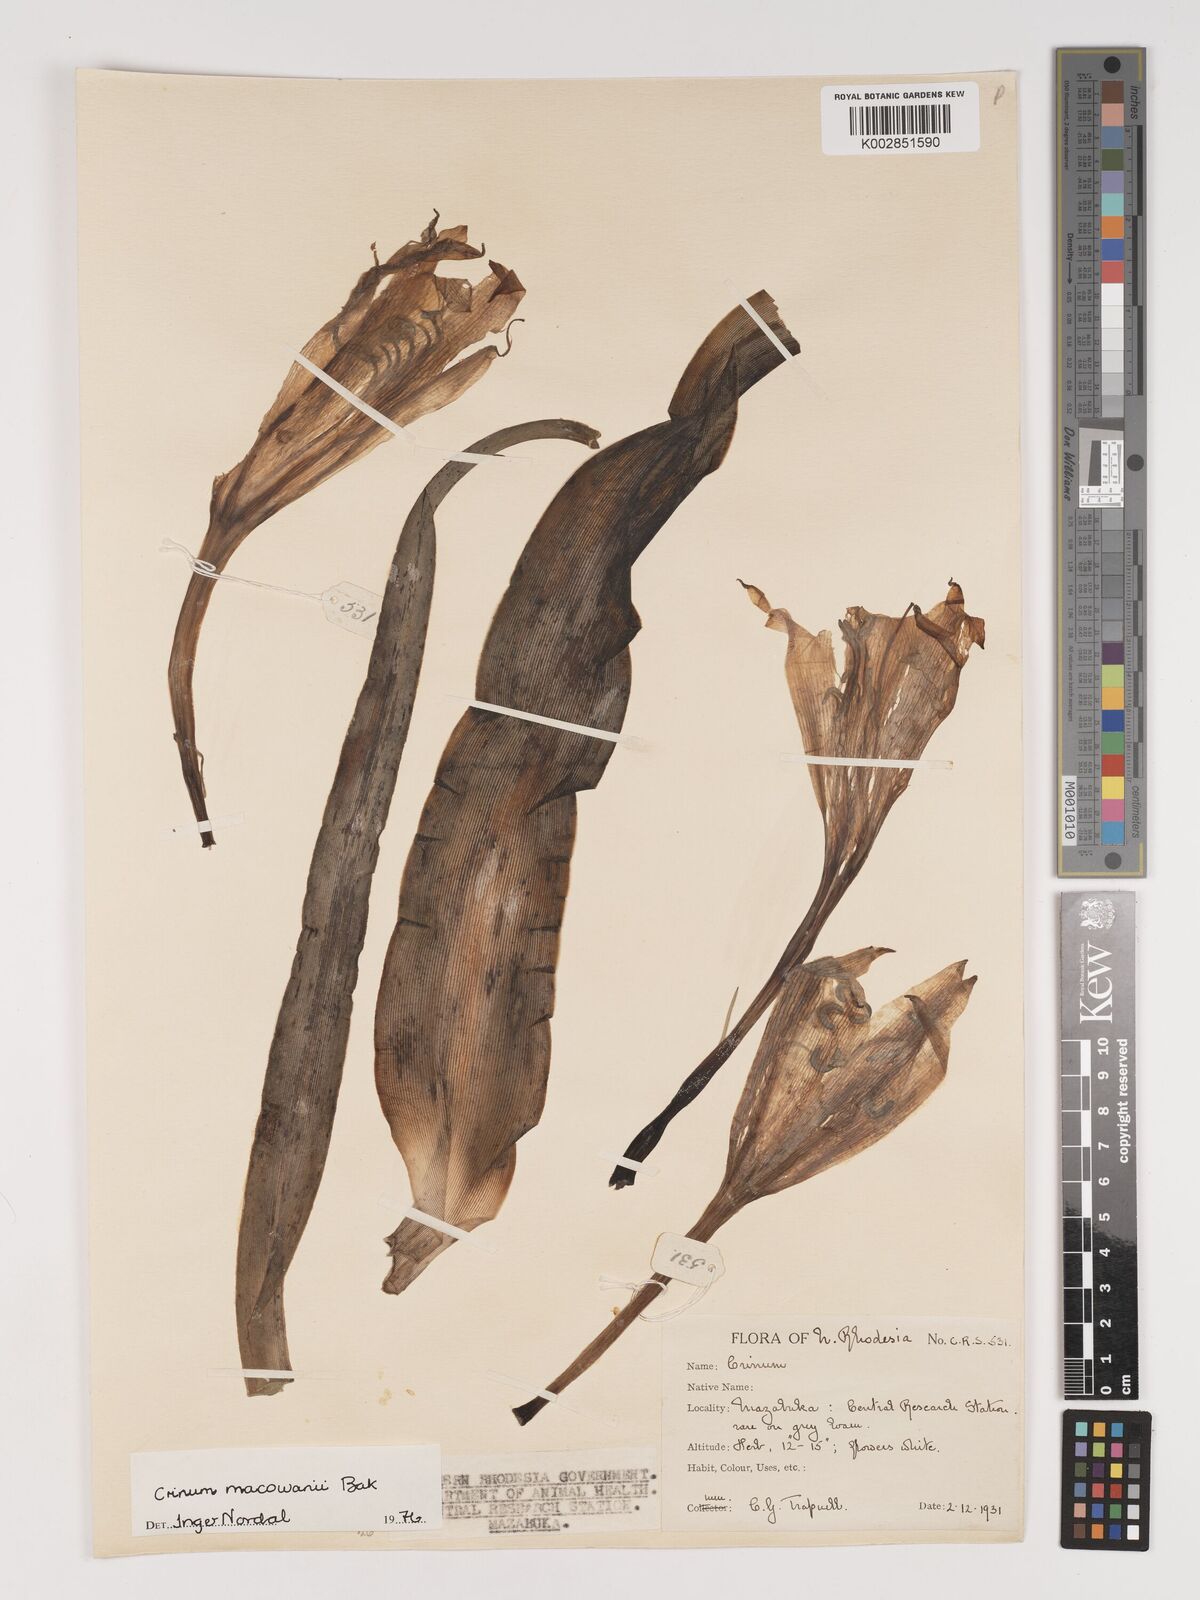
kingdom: Plantae
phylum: Tracheophyta
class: Liliopsida
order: Asparagales
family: Amaryllidaceae
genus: Crinum
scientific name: Crinum macowanii
